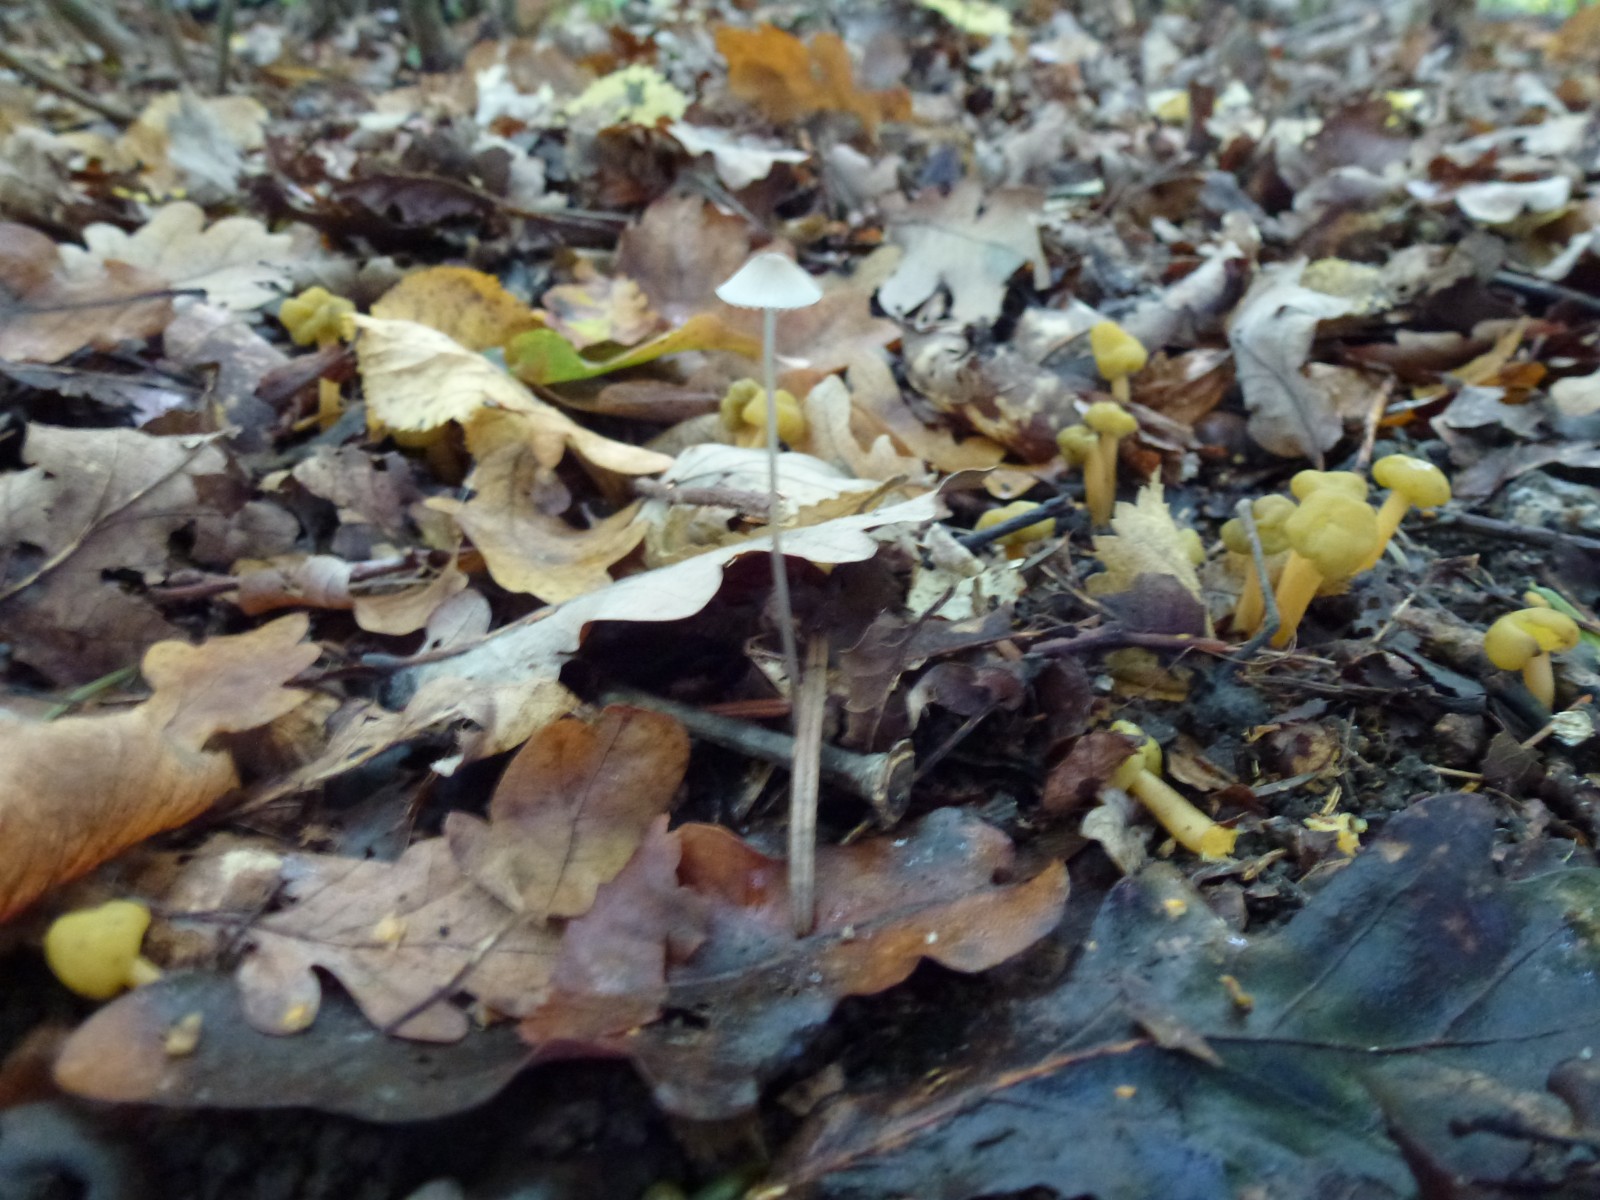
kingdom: Fungi
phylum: Ascomycota
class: Leotiomycetes
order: Leotiales
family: Leotiaceae
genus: Leotia
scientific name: Leotia lubrica
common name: ravsvamp
